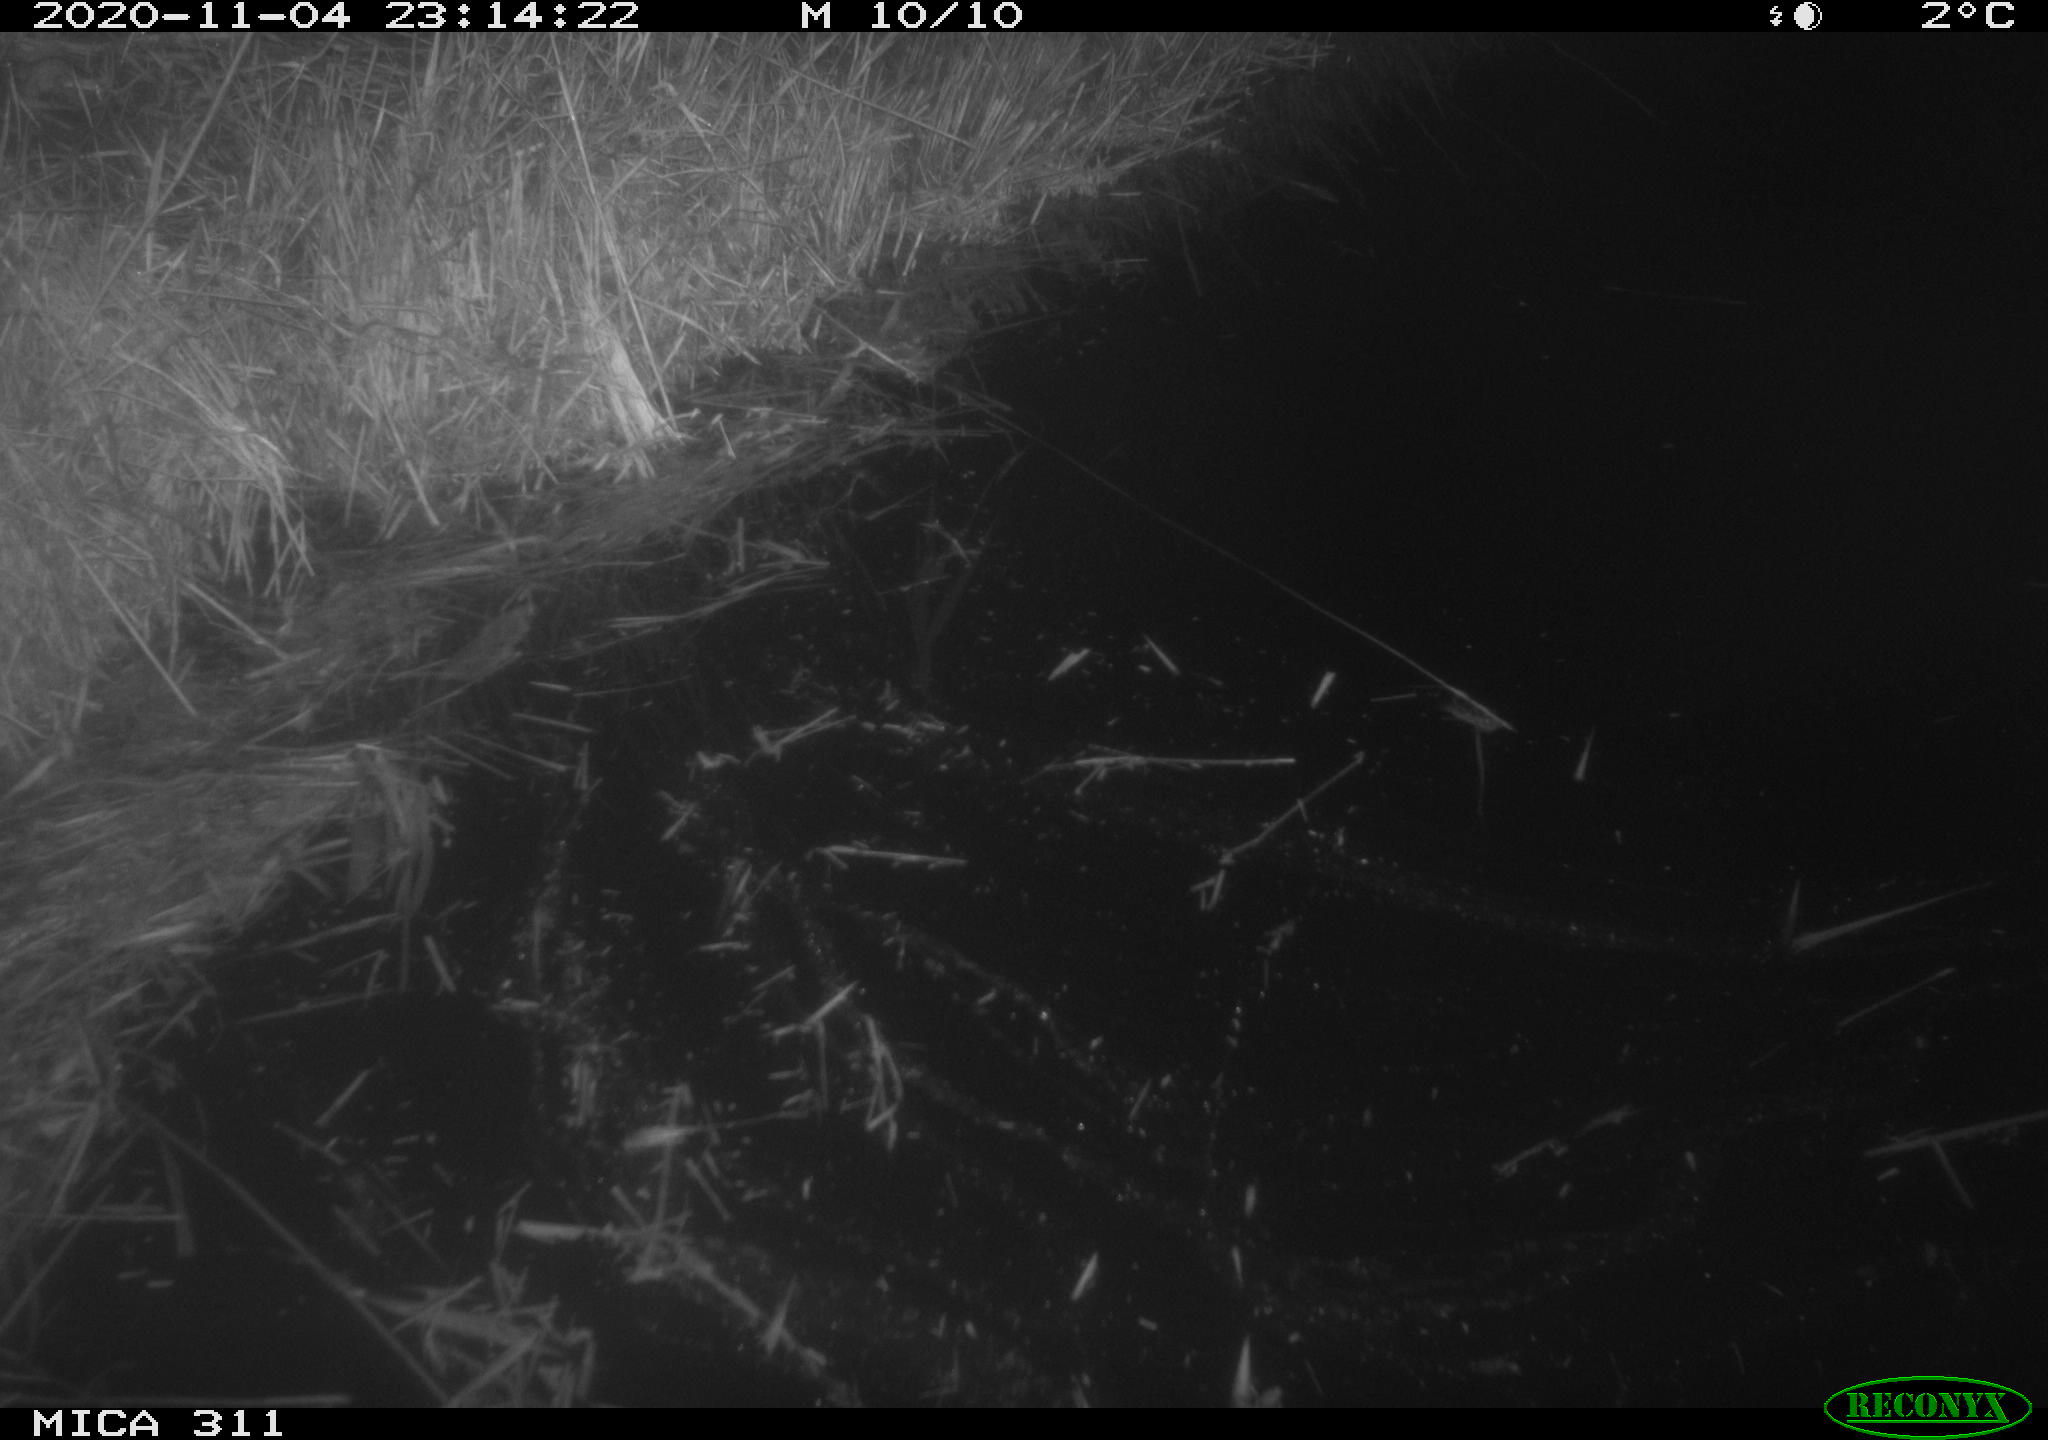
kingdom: Animalia
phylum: Chordata
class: Mammalia
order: Rodentia
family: Muridae
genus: Rattus
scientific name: Rattus norvegicus
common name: Brown rat
